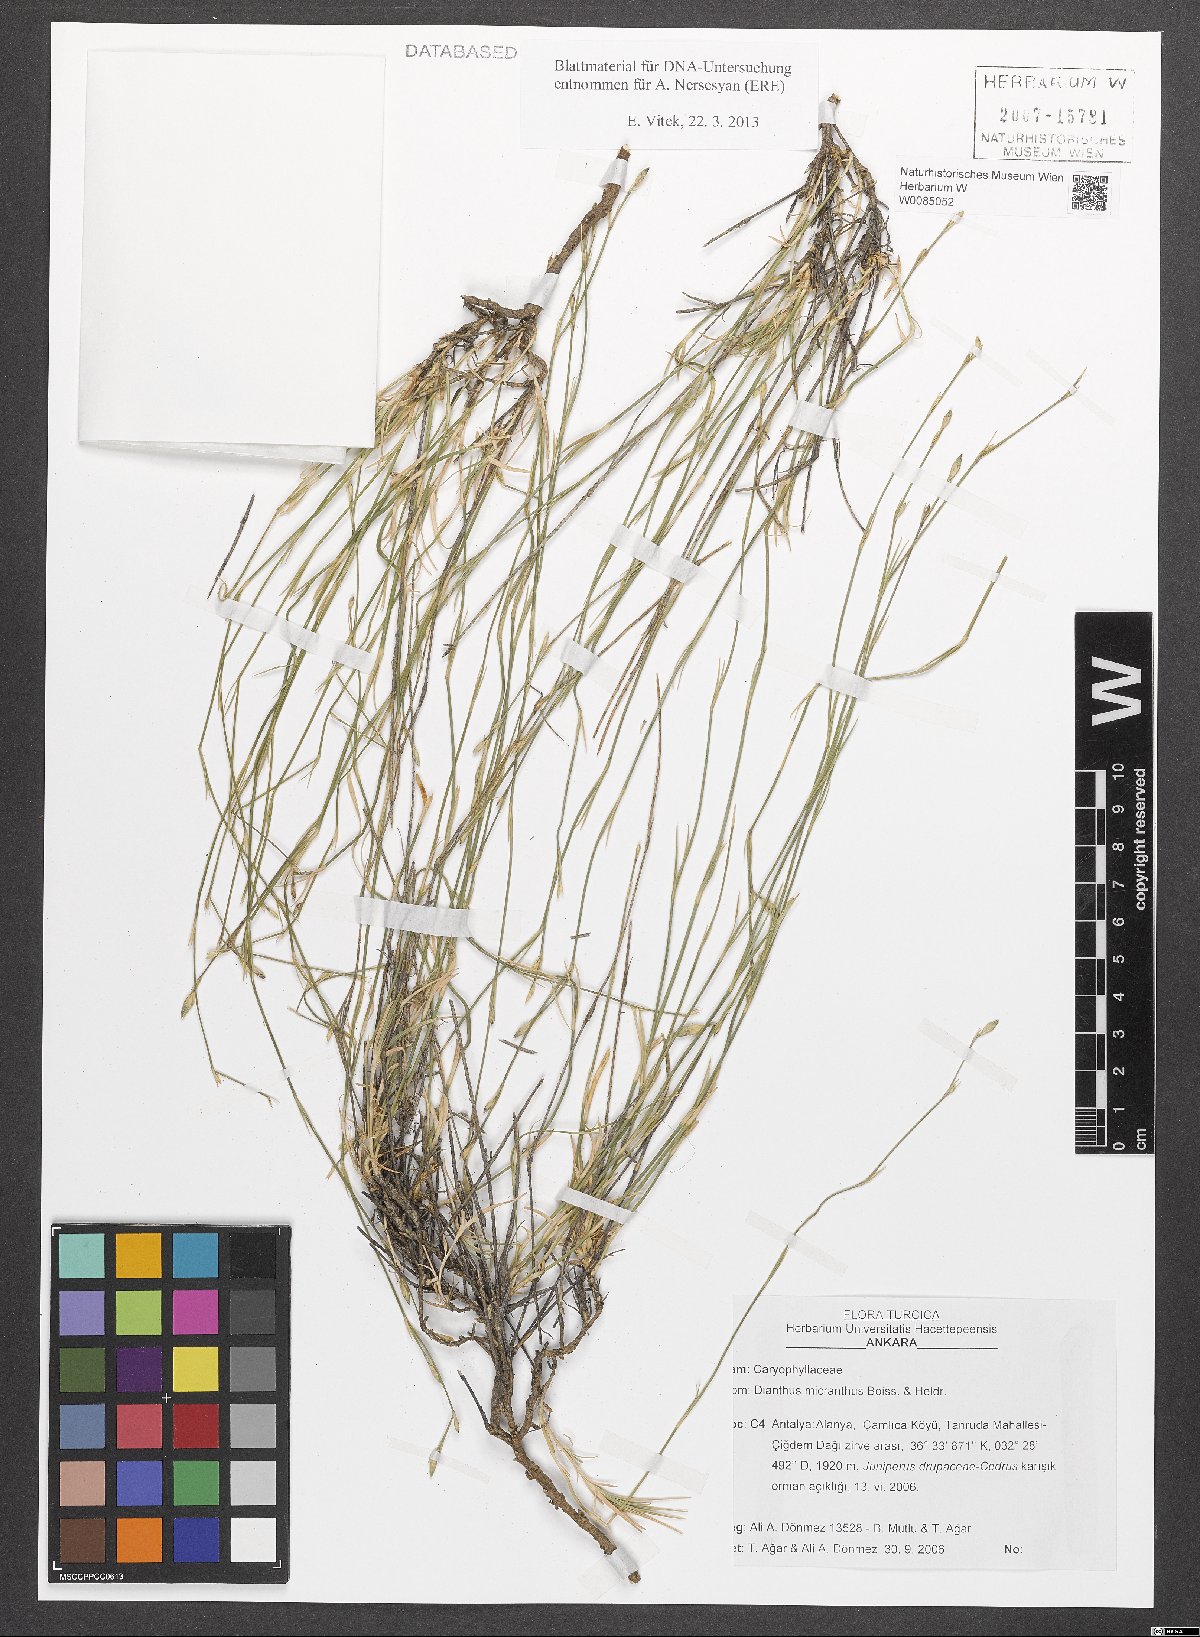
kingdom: Plantae
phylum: Tracheophyta
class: Magnoliopsida
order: Caryophyllales
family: Caryophyllaceae
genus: Dianthus
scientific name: Dianthus micranthus
